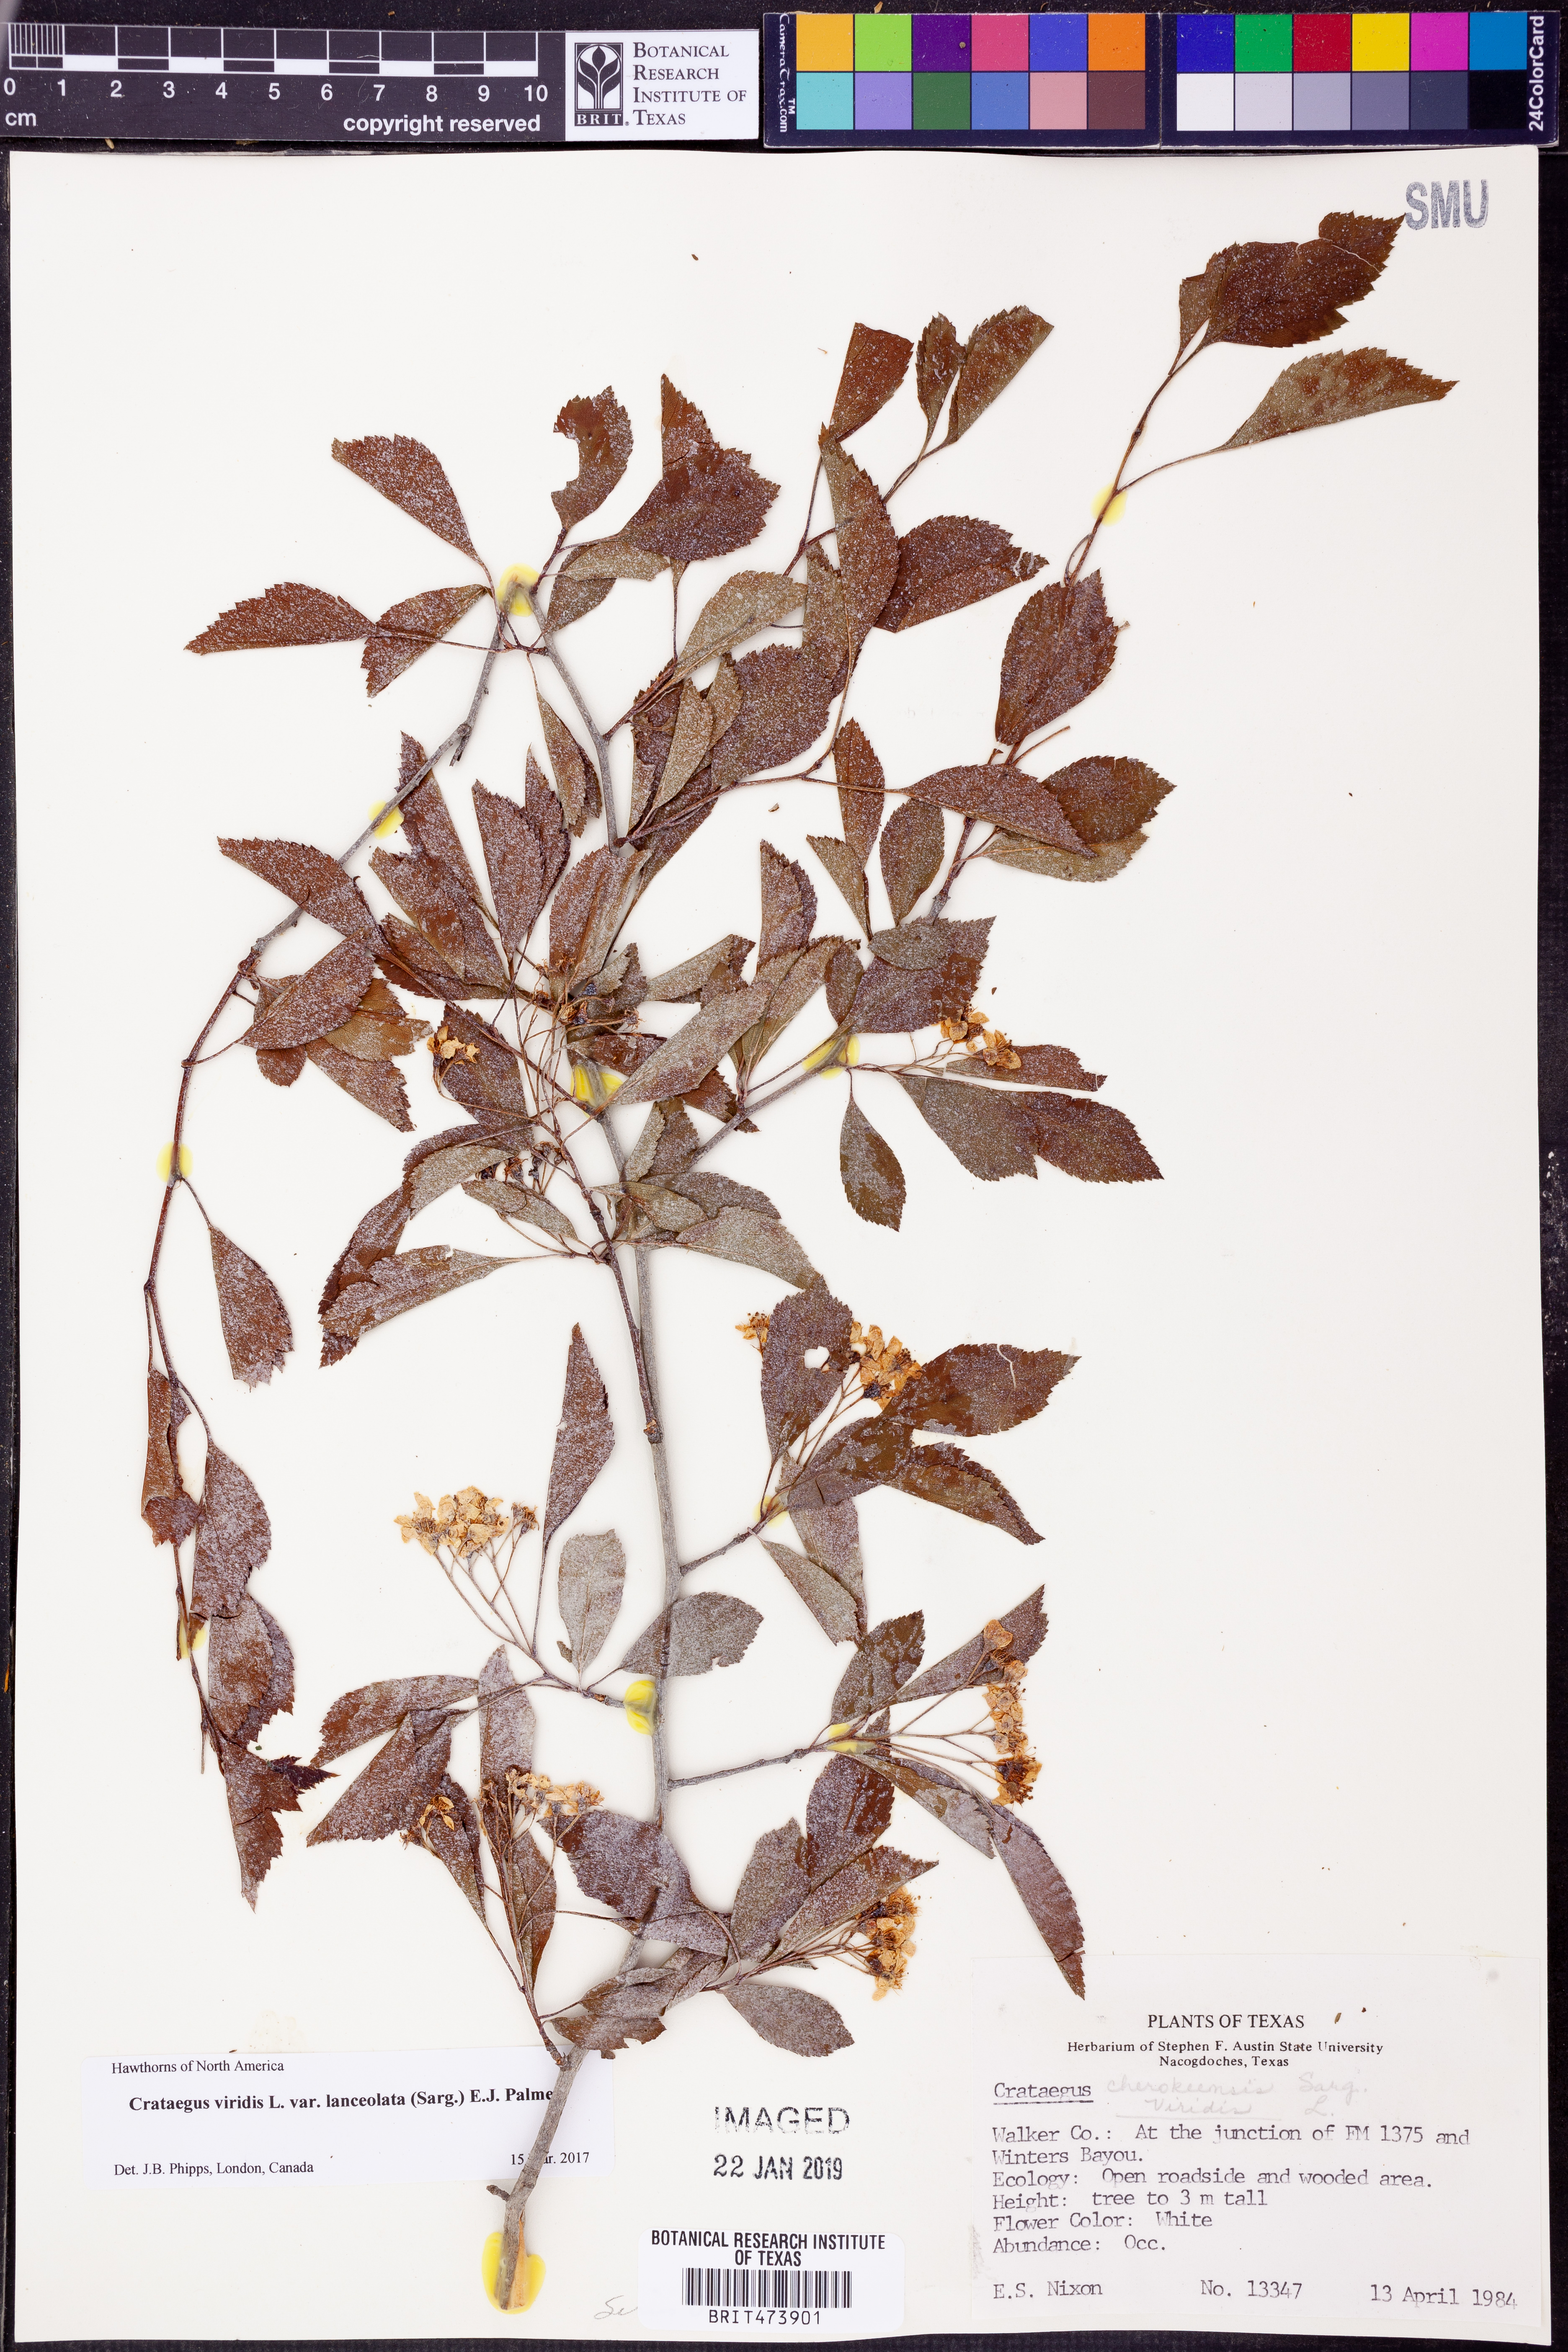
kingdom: Plantae
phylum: Tracheophyta
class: Magnoliopsida
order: Rosales
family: Rosaceae
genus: Crataegus
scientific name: Crataegus viridis
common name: Southernthorn
